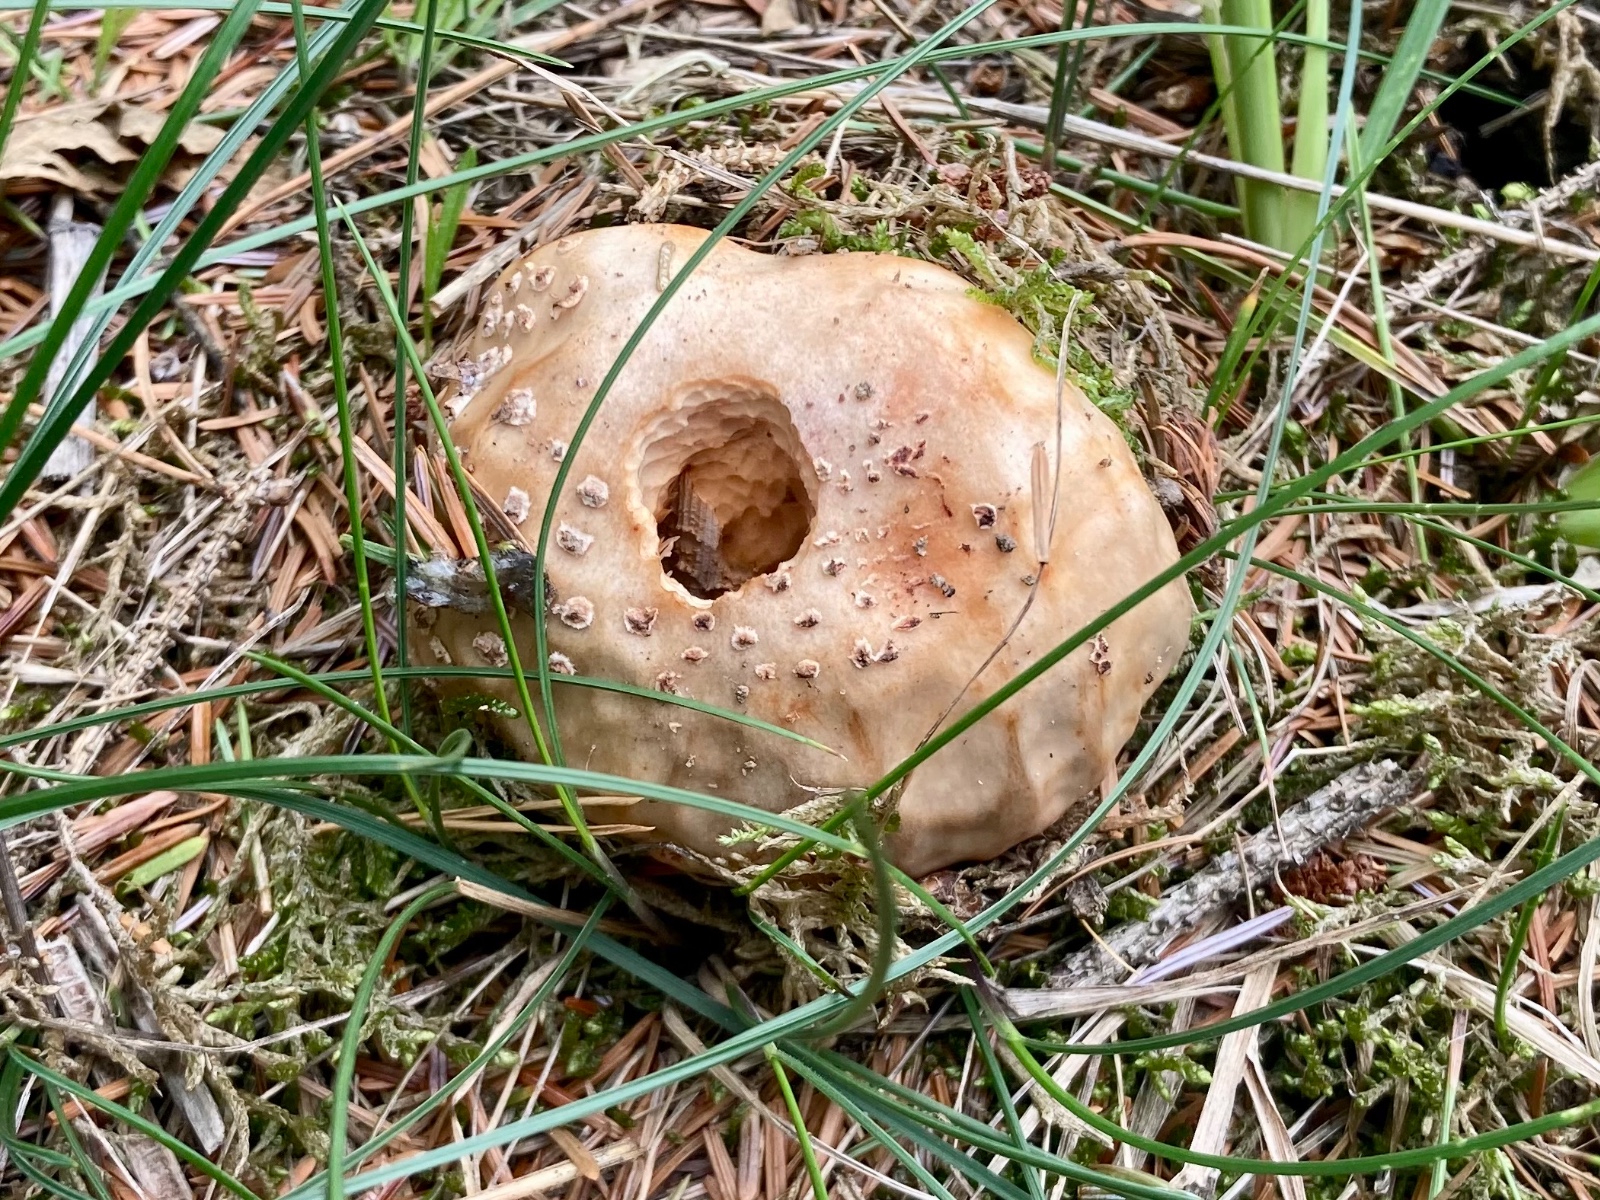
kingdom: Fungi
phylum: Basidiomycota
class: Agaricomycetes
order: Agaricales
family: Amanitaceae
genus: Amanita
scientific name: Amanita rubescens
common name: rødmende fluesvamp
